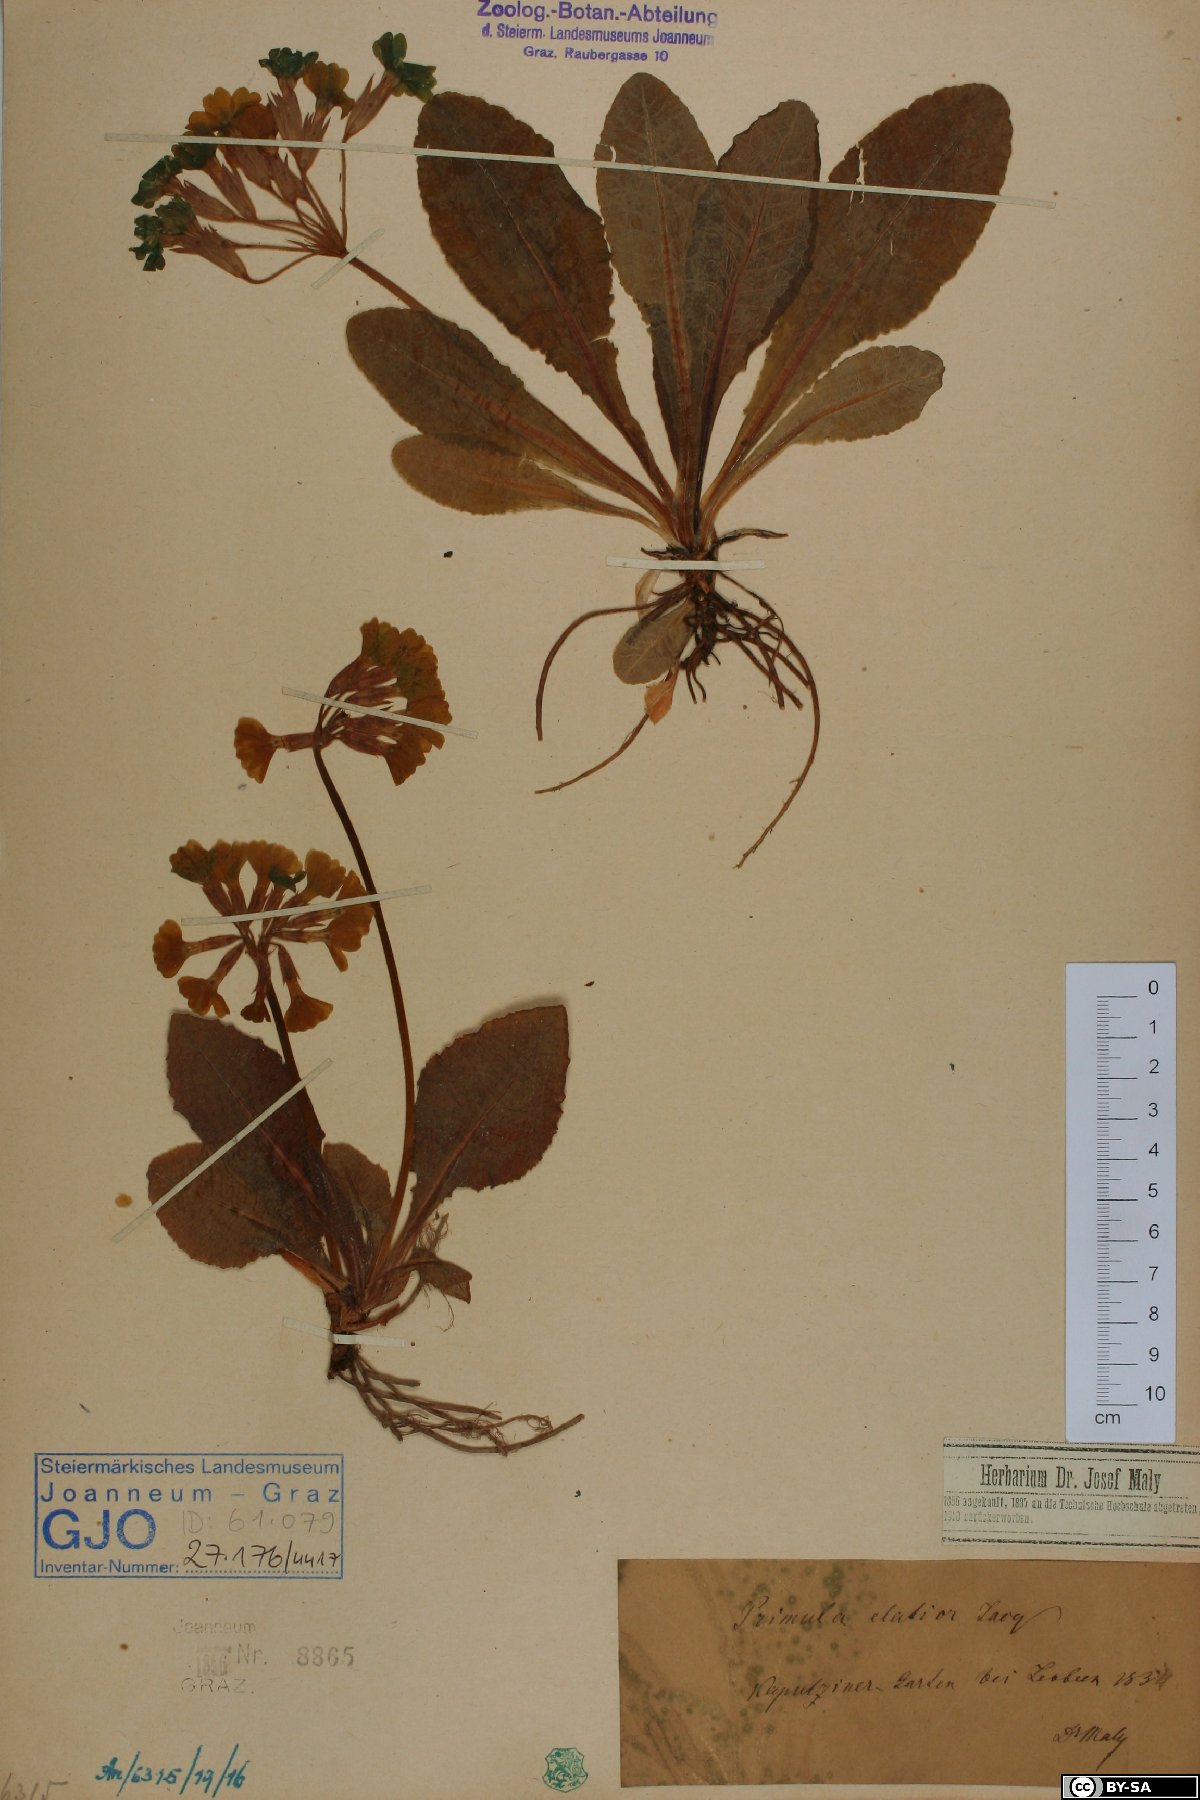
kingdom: Plantae
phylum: Tracheophyta
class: Magnoliopsida
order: Ericales
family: Primulaceae
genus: Primula
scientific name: Primula elatior
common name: Oxlip
